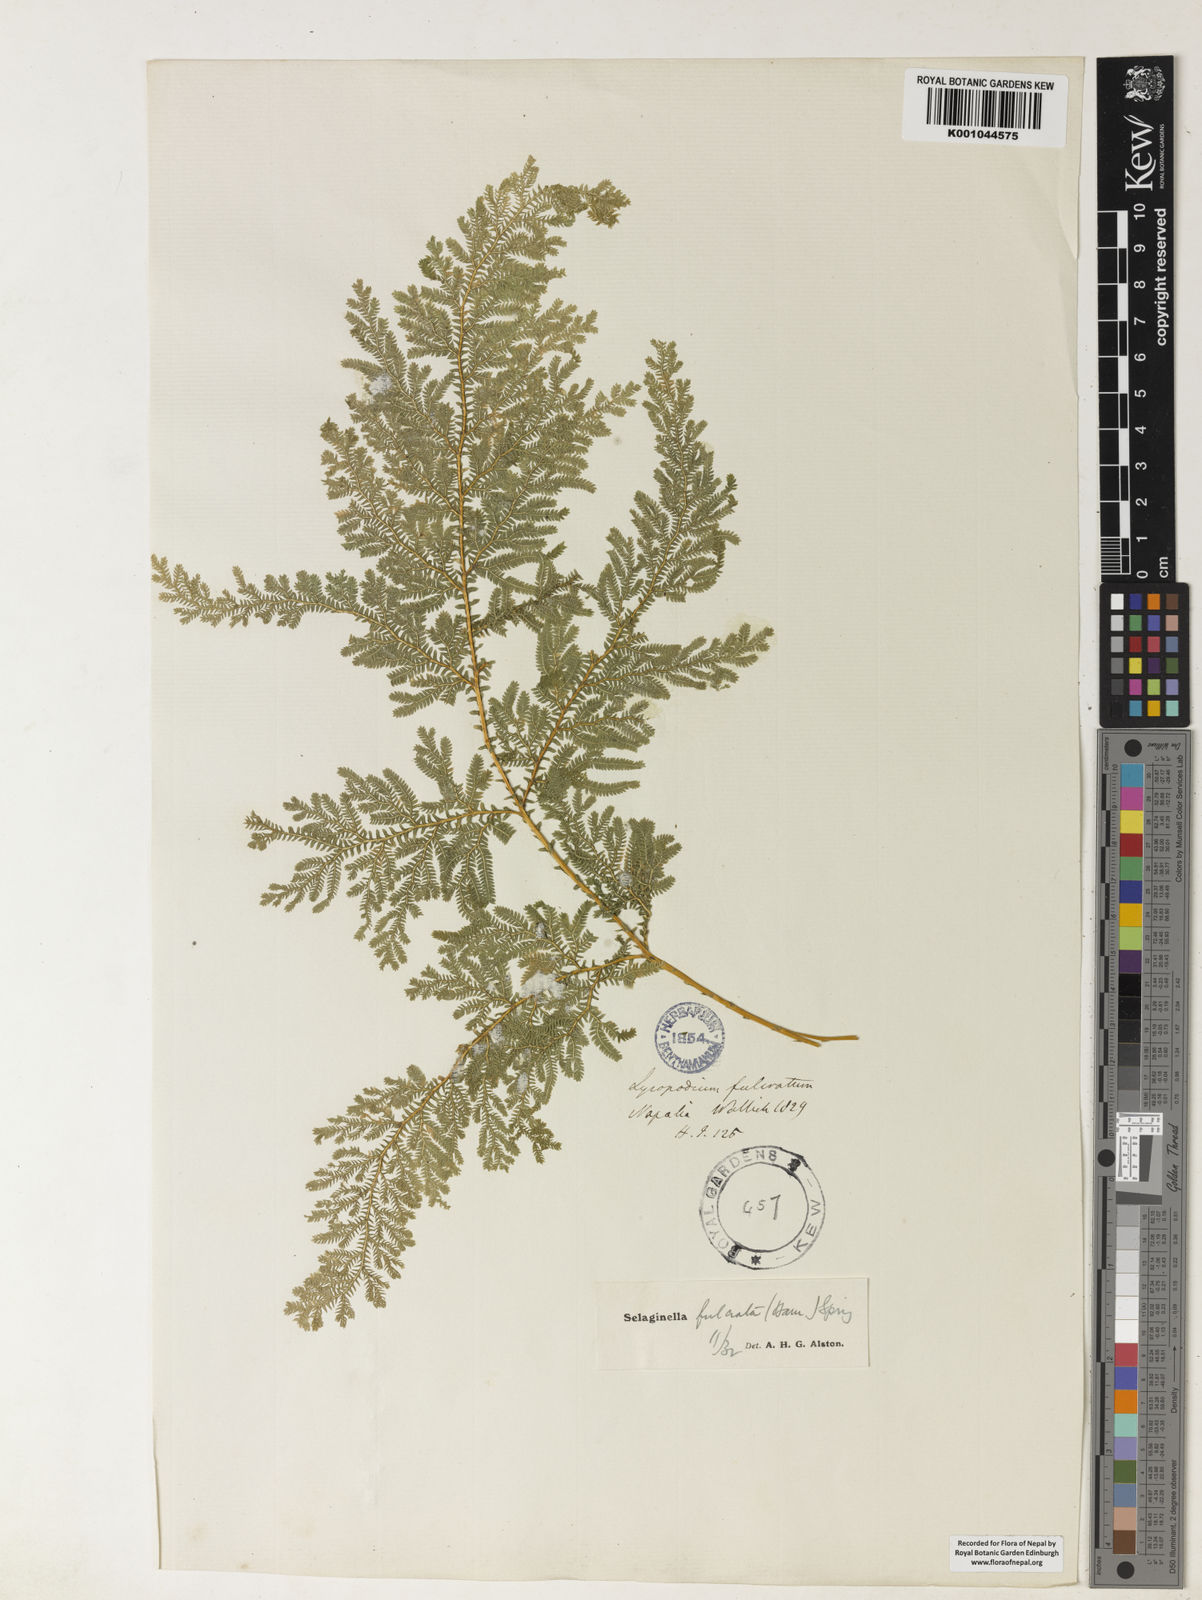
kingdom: Plantae
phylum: Tracheophyta
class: Lycopodiopsida
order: Selaginellales
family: Selaginellaceae
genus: Selaginella
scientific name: Selaginella fulcrata
